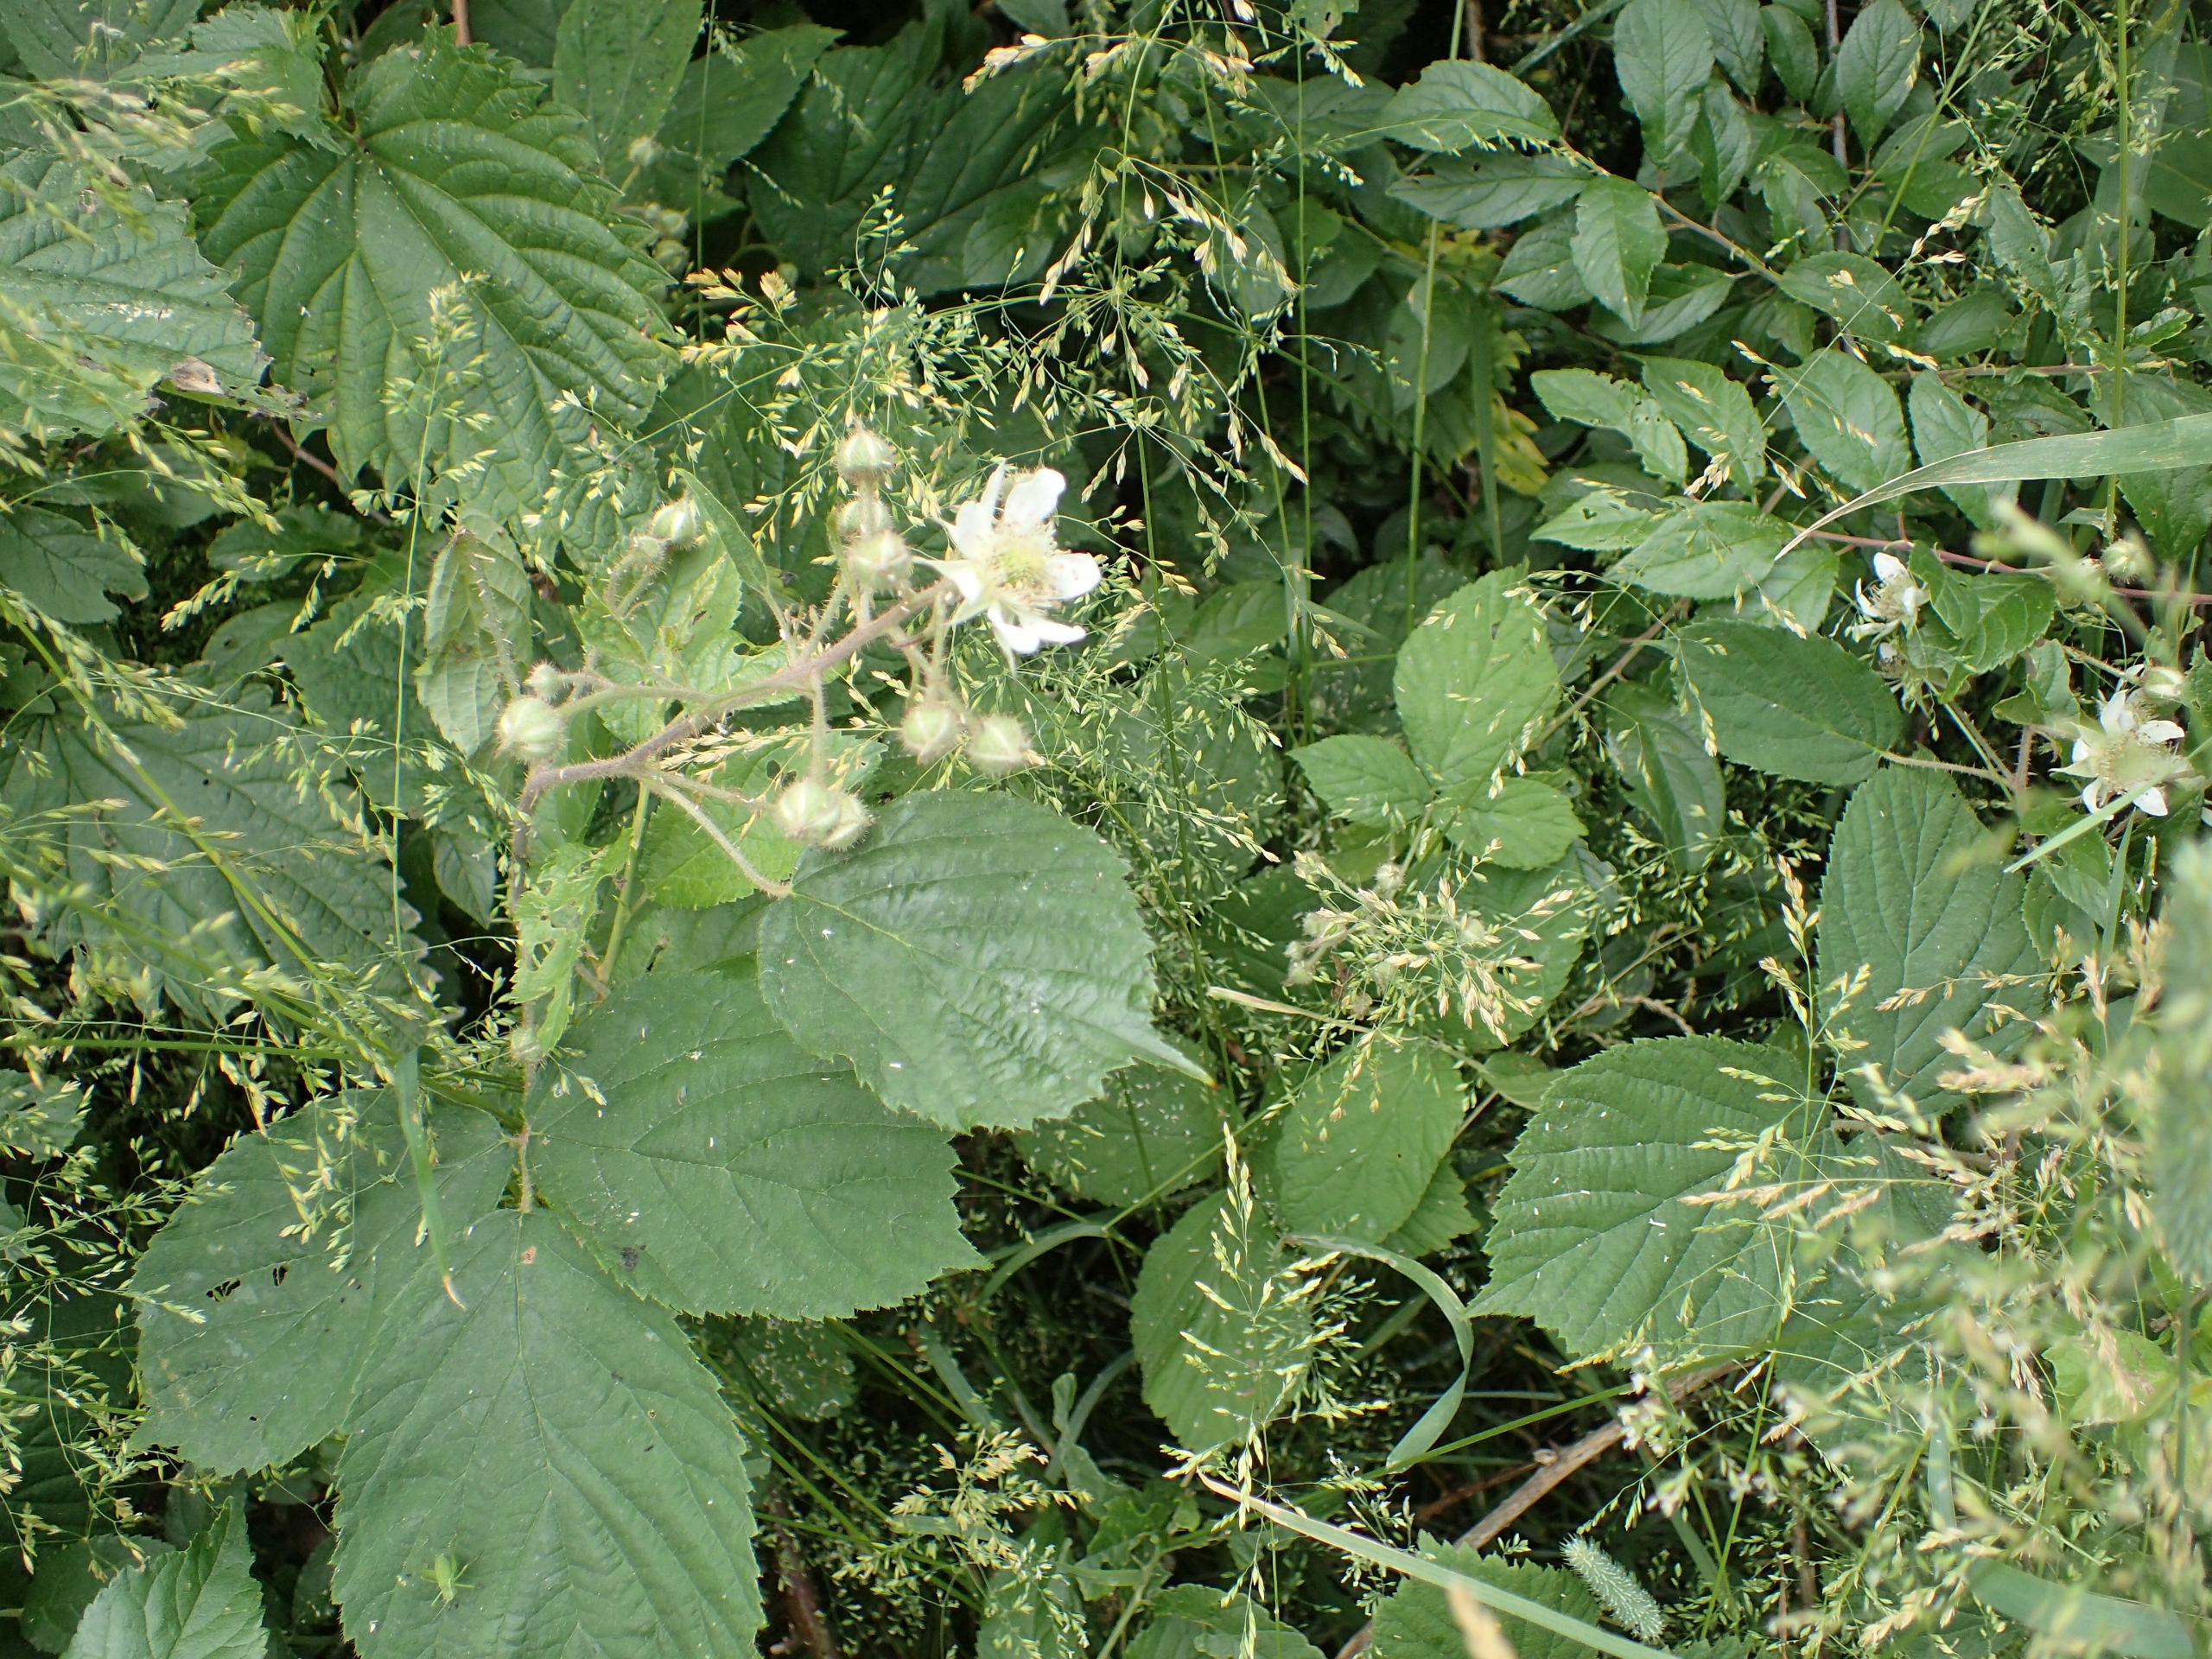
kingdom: Plantae
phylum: Tracheophyta
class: Magnoliopsida
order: Rosales
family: Rosaceae
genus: Rubus
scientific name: Rubus nigricans
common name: Trebladet brombær
